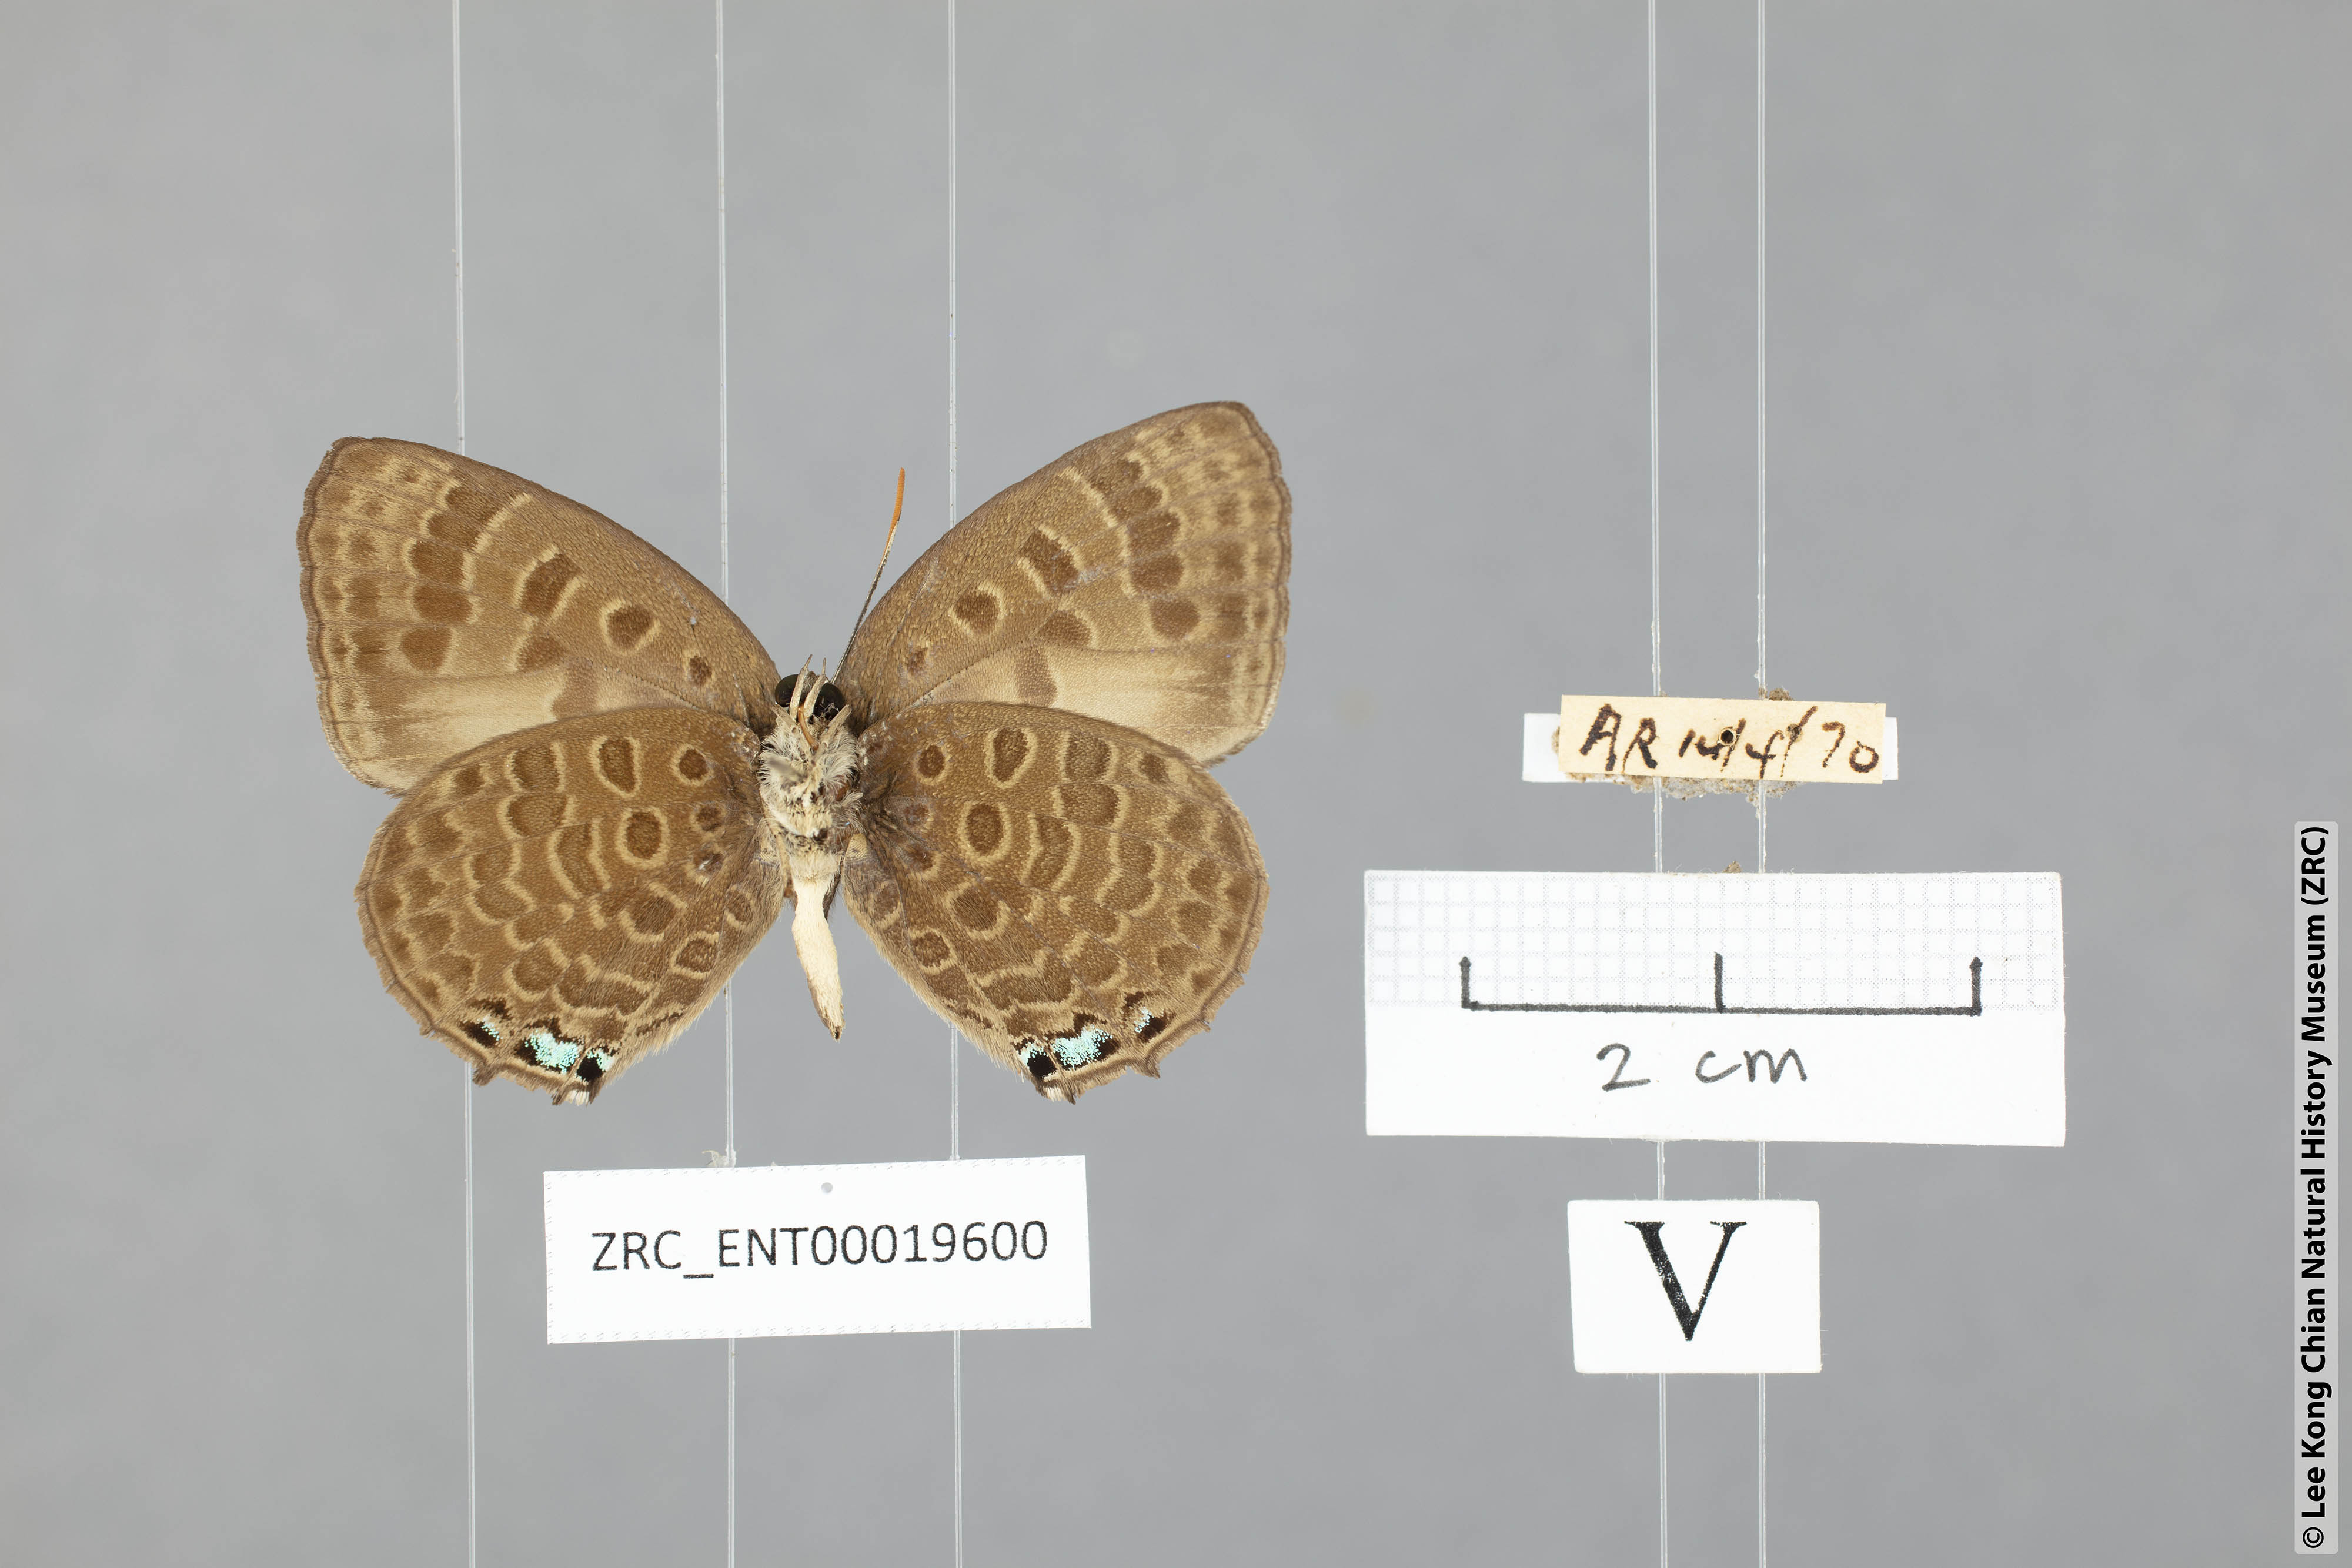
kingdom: Animalia
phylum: Arthropoda
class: Insecta
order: Lepidoptera
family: Lycaenidae
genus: Arhopala
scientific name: Arhopala labuana
